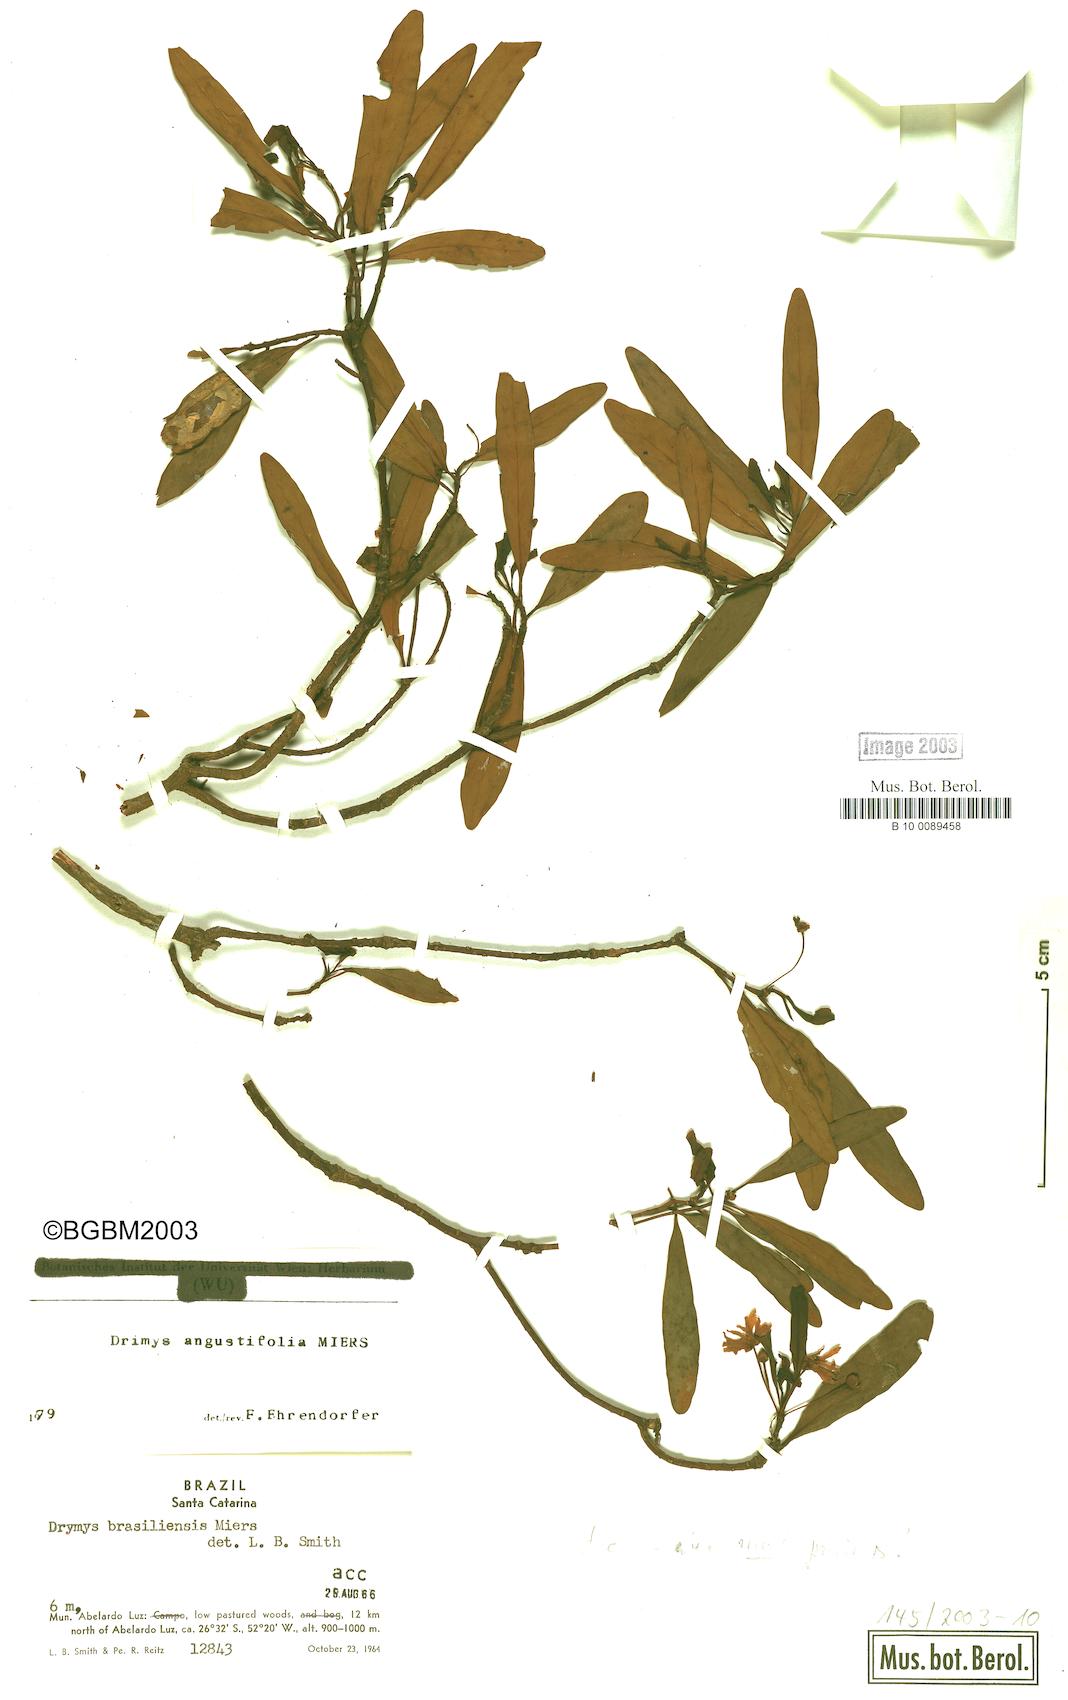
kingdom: Plantae
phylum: Tracheophyta
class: Magnoliopsida
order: Canellales
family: Winteraceae
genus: Drimys
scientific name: Drimys angustifolia
